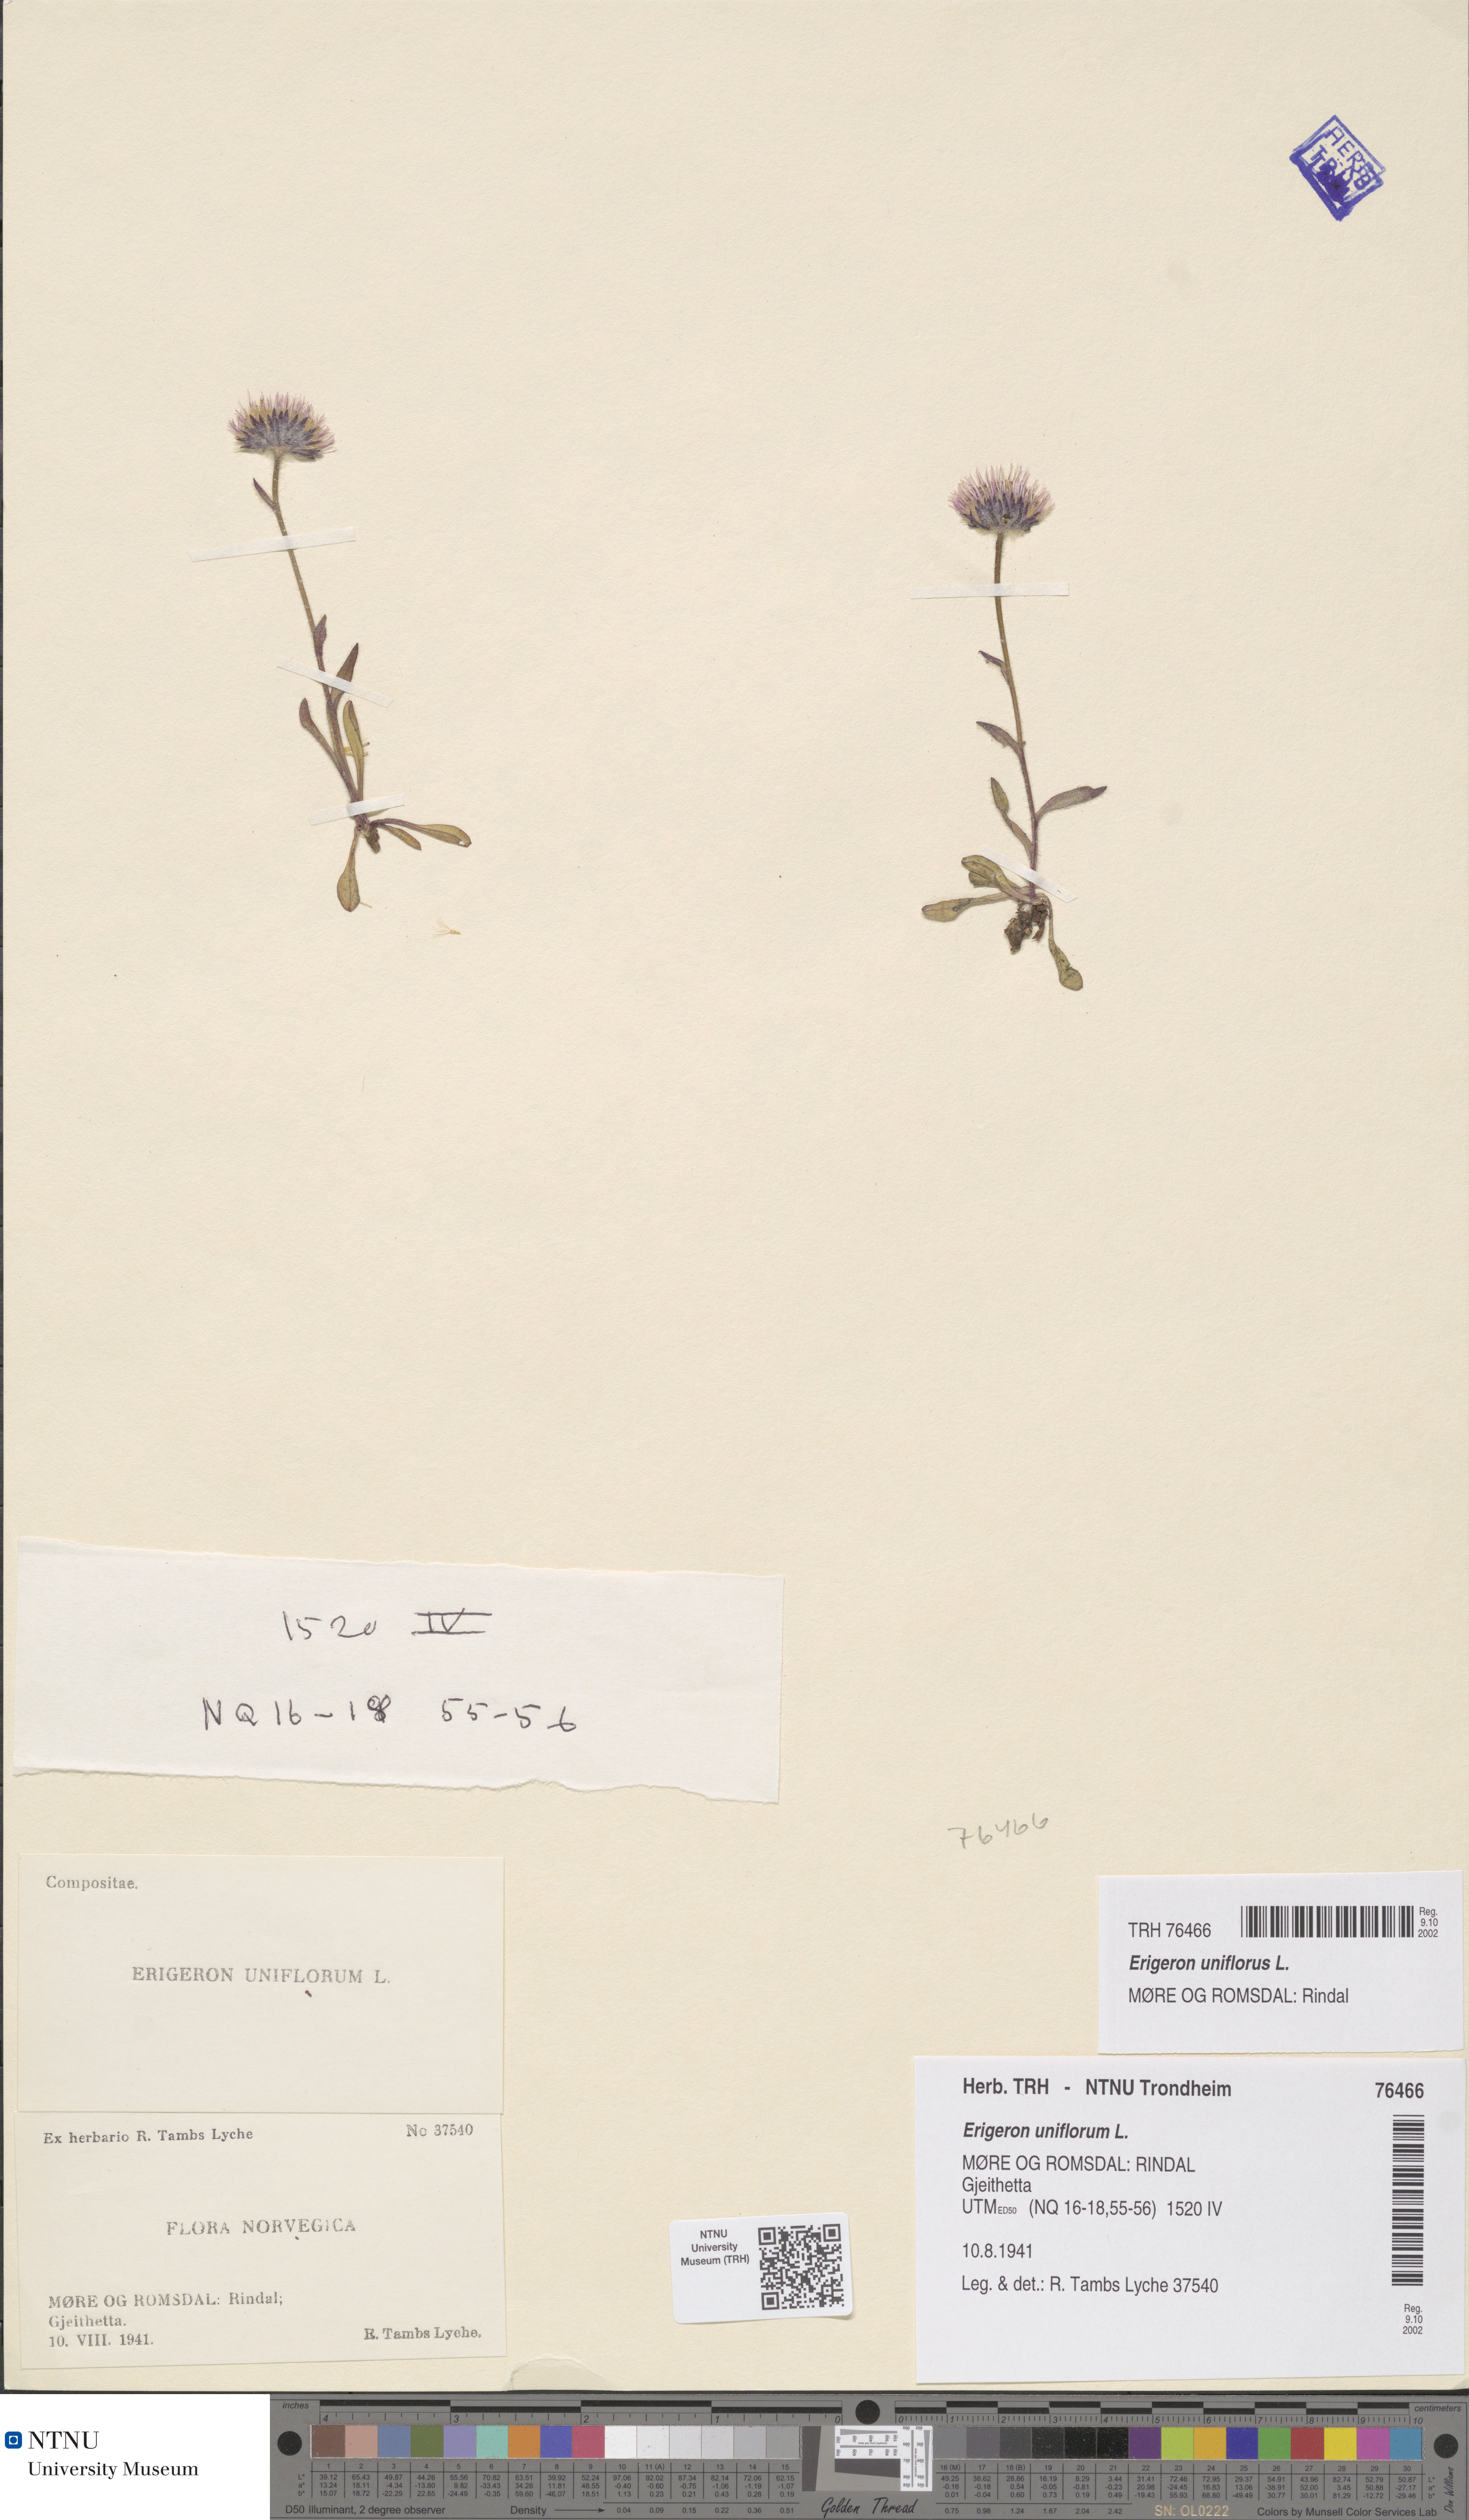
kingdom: Plantae
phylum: Tracheophyta
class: Magnoliopsida
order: Asterales
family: Asteraceae
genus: Erigeron
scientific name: Erigeron uniflorus
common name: Northern daisy
